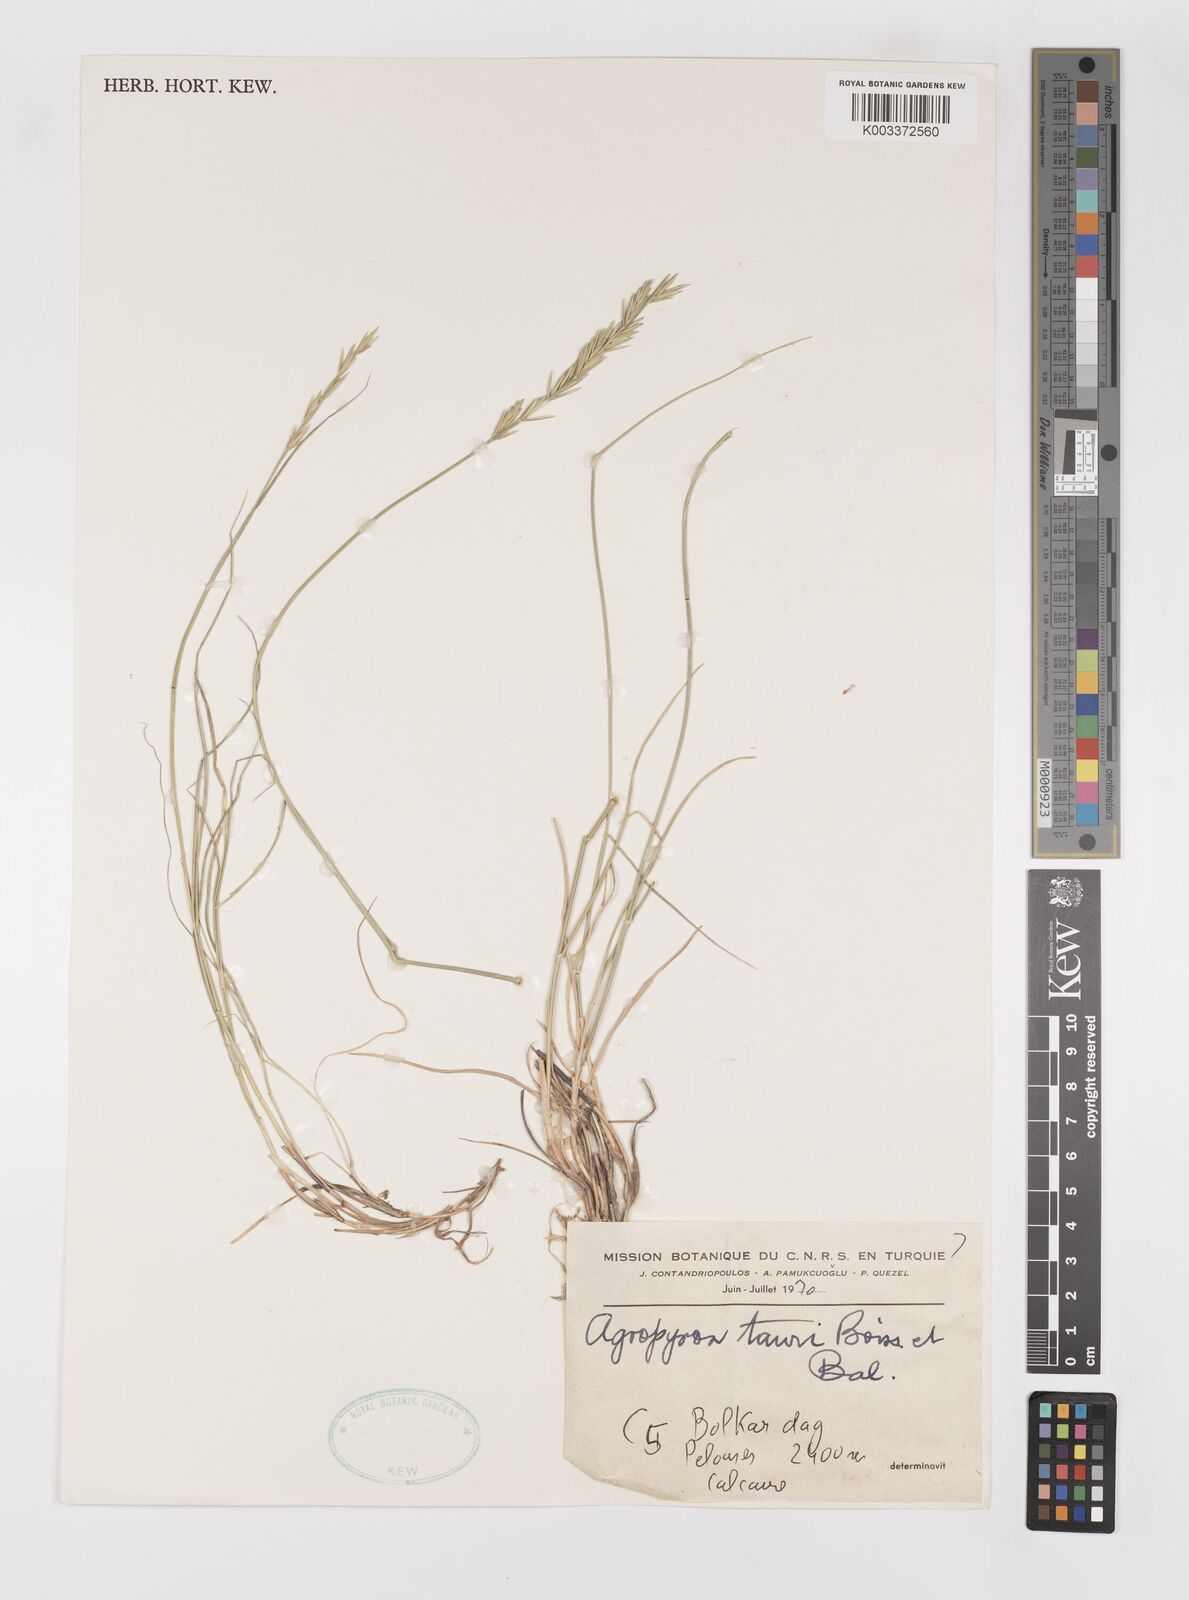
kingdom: Plantae
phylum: Tracheophyta
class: Liliopsida
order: Poales
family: Poaceae
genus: Pseudoroegneria
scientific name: Pseudoroegneria tauri
